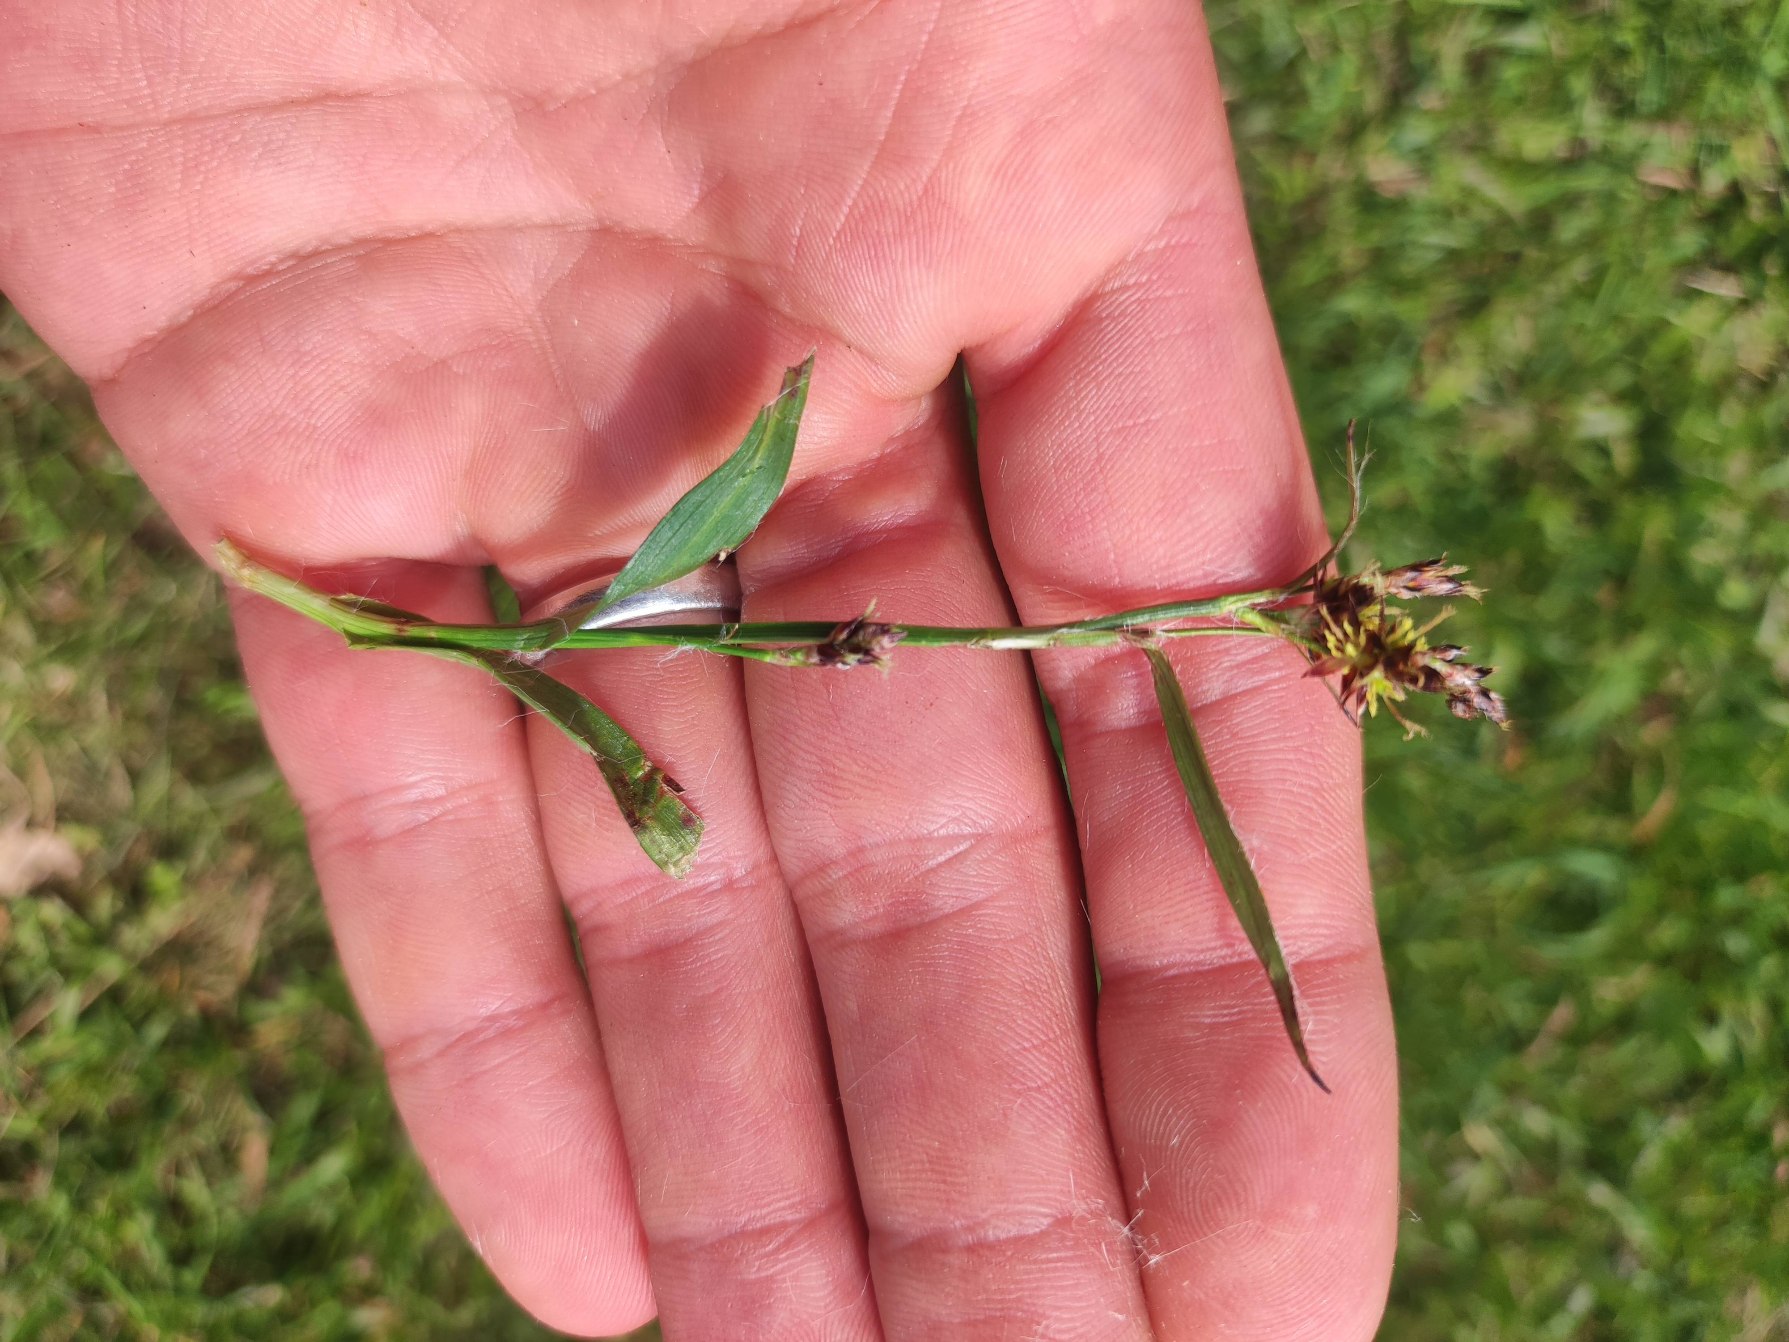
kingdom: Plantae
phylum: Tracheophyta
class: Liliopsida
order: Poales
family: Juncaceae
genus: Luzula
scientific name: Luzula campestris
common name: Mark-frytle
